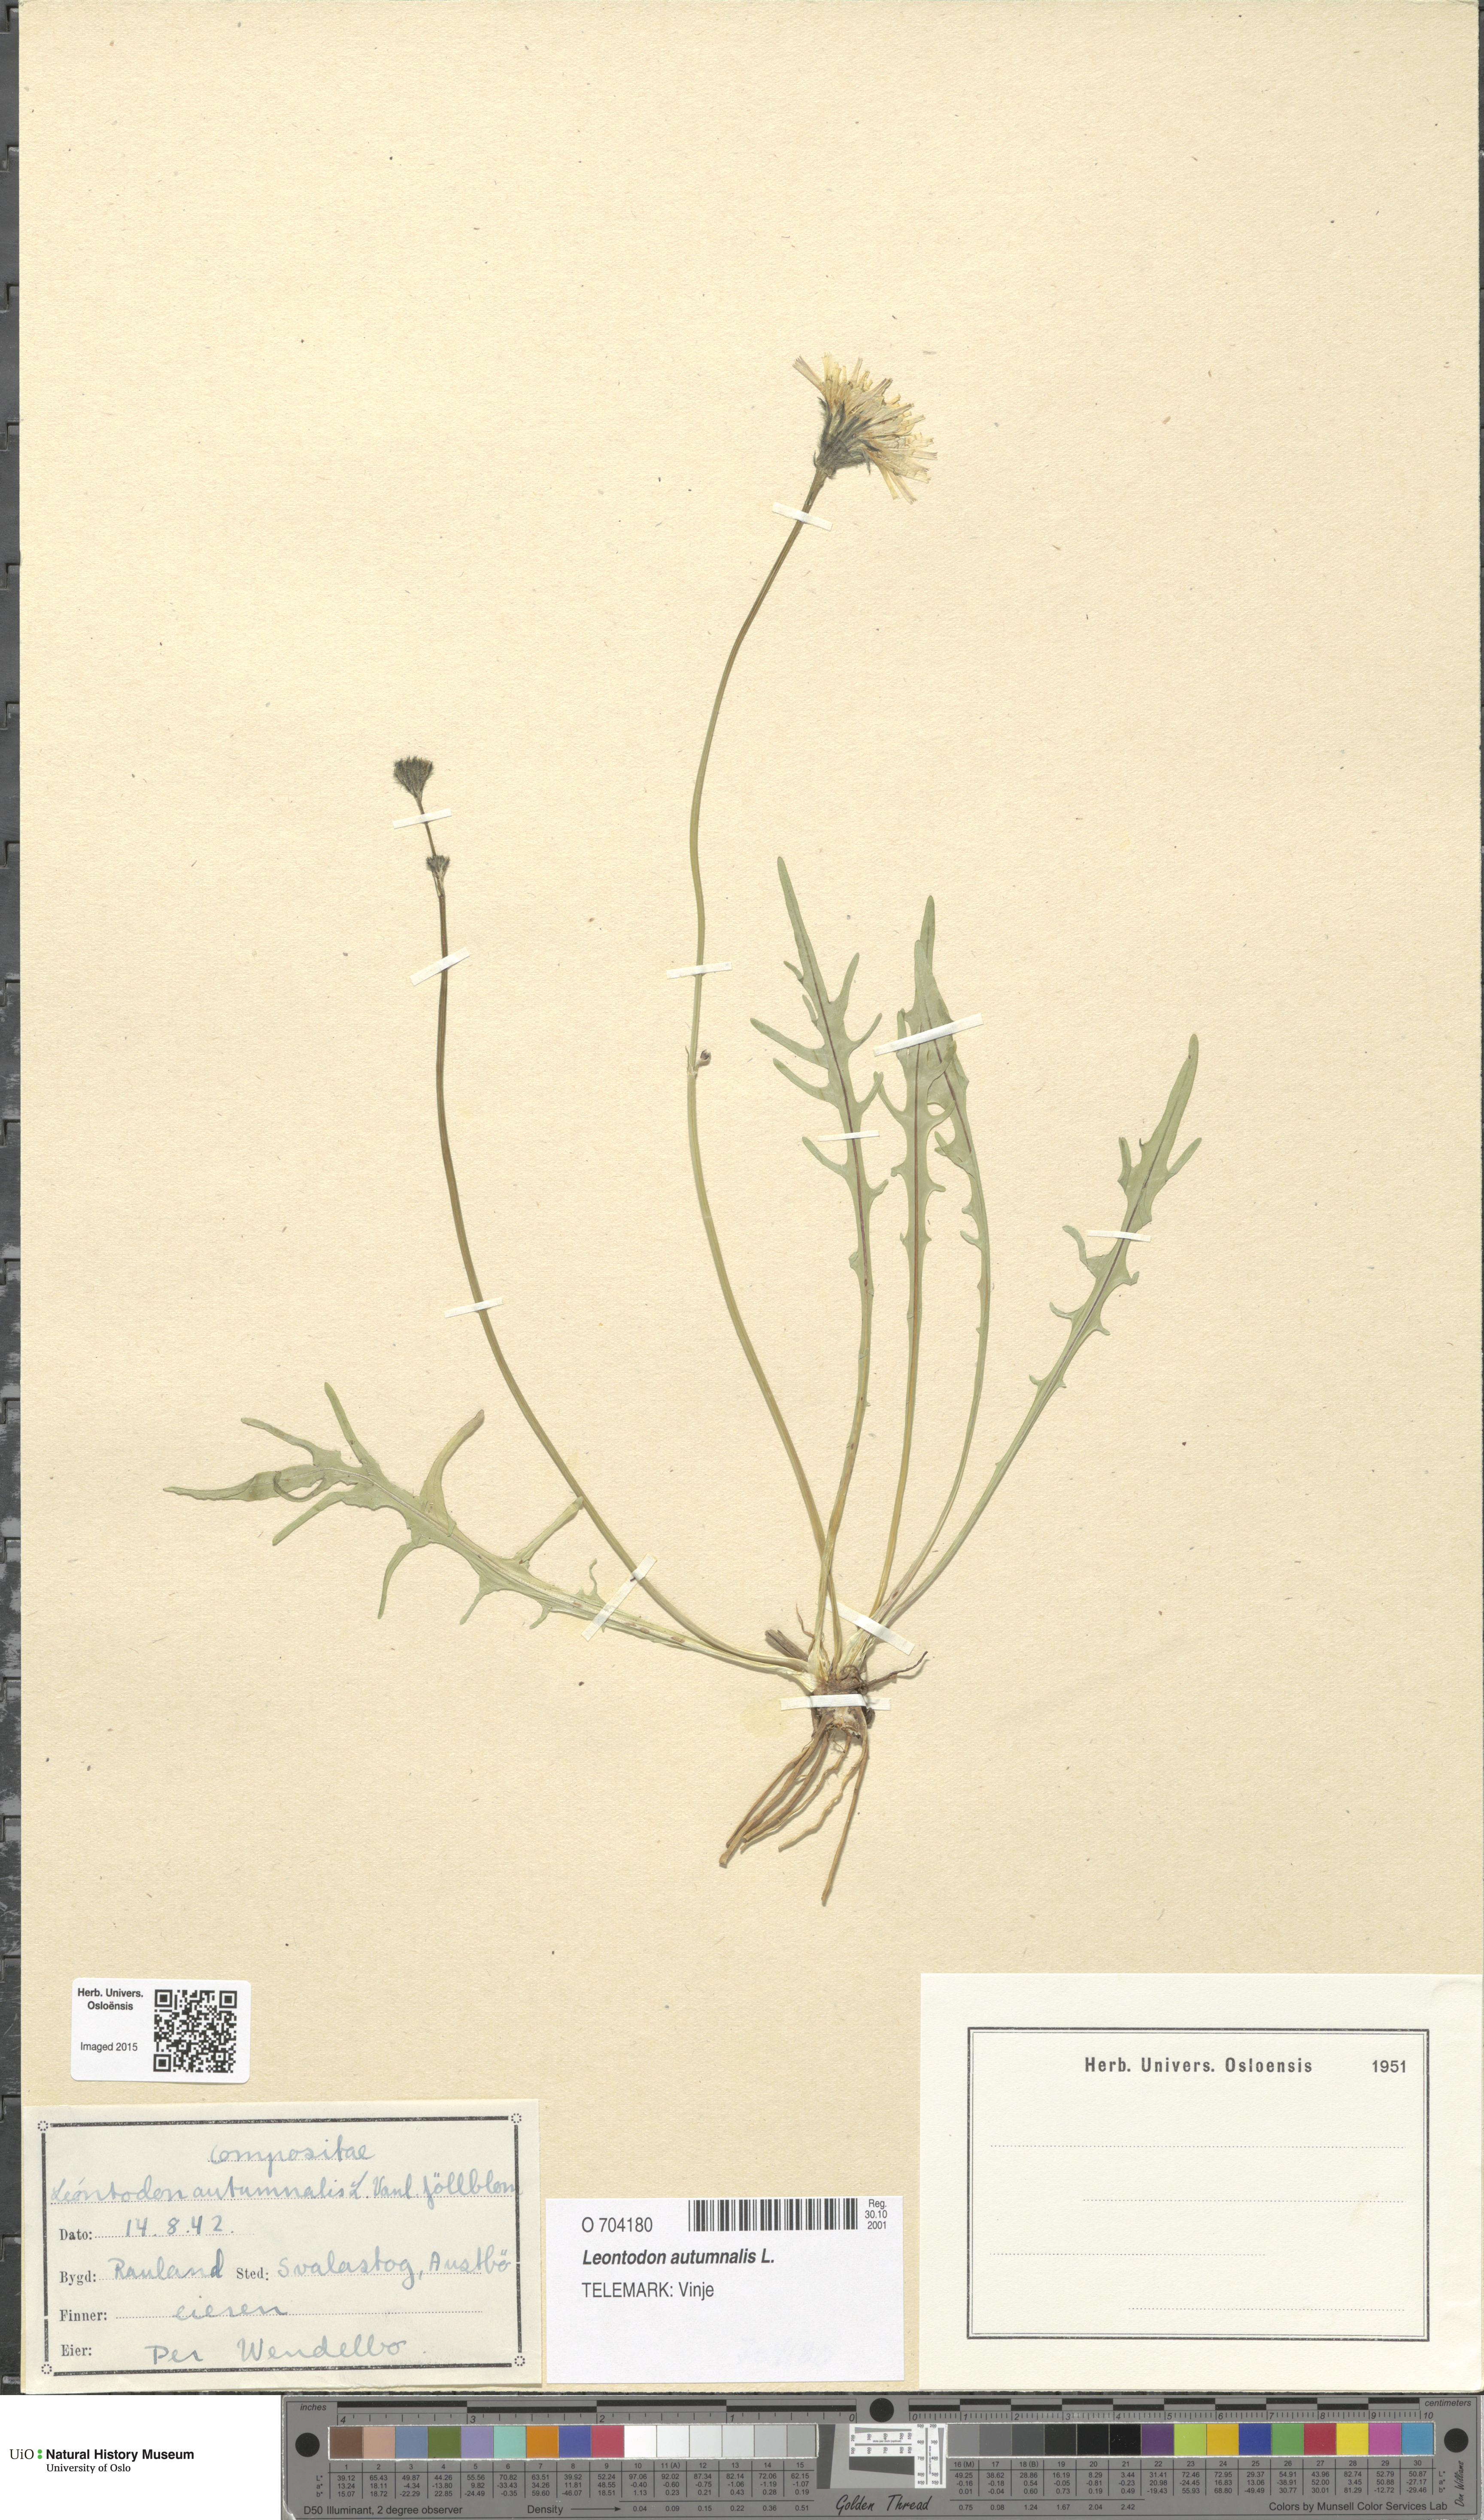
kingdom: Plantae
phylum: Tracheophyta
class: Magnoliopsida
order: Asterales
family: Asteraceae
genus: Scorzoneroides
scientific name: Scorzoneroides autumnalis
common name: Autumn hawkbit
